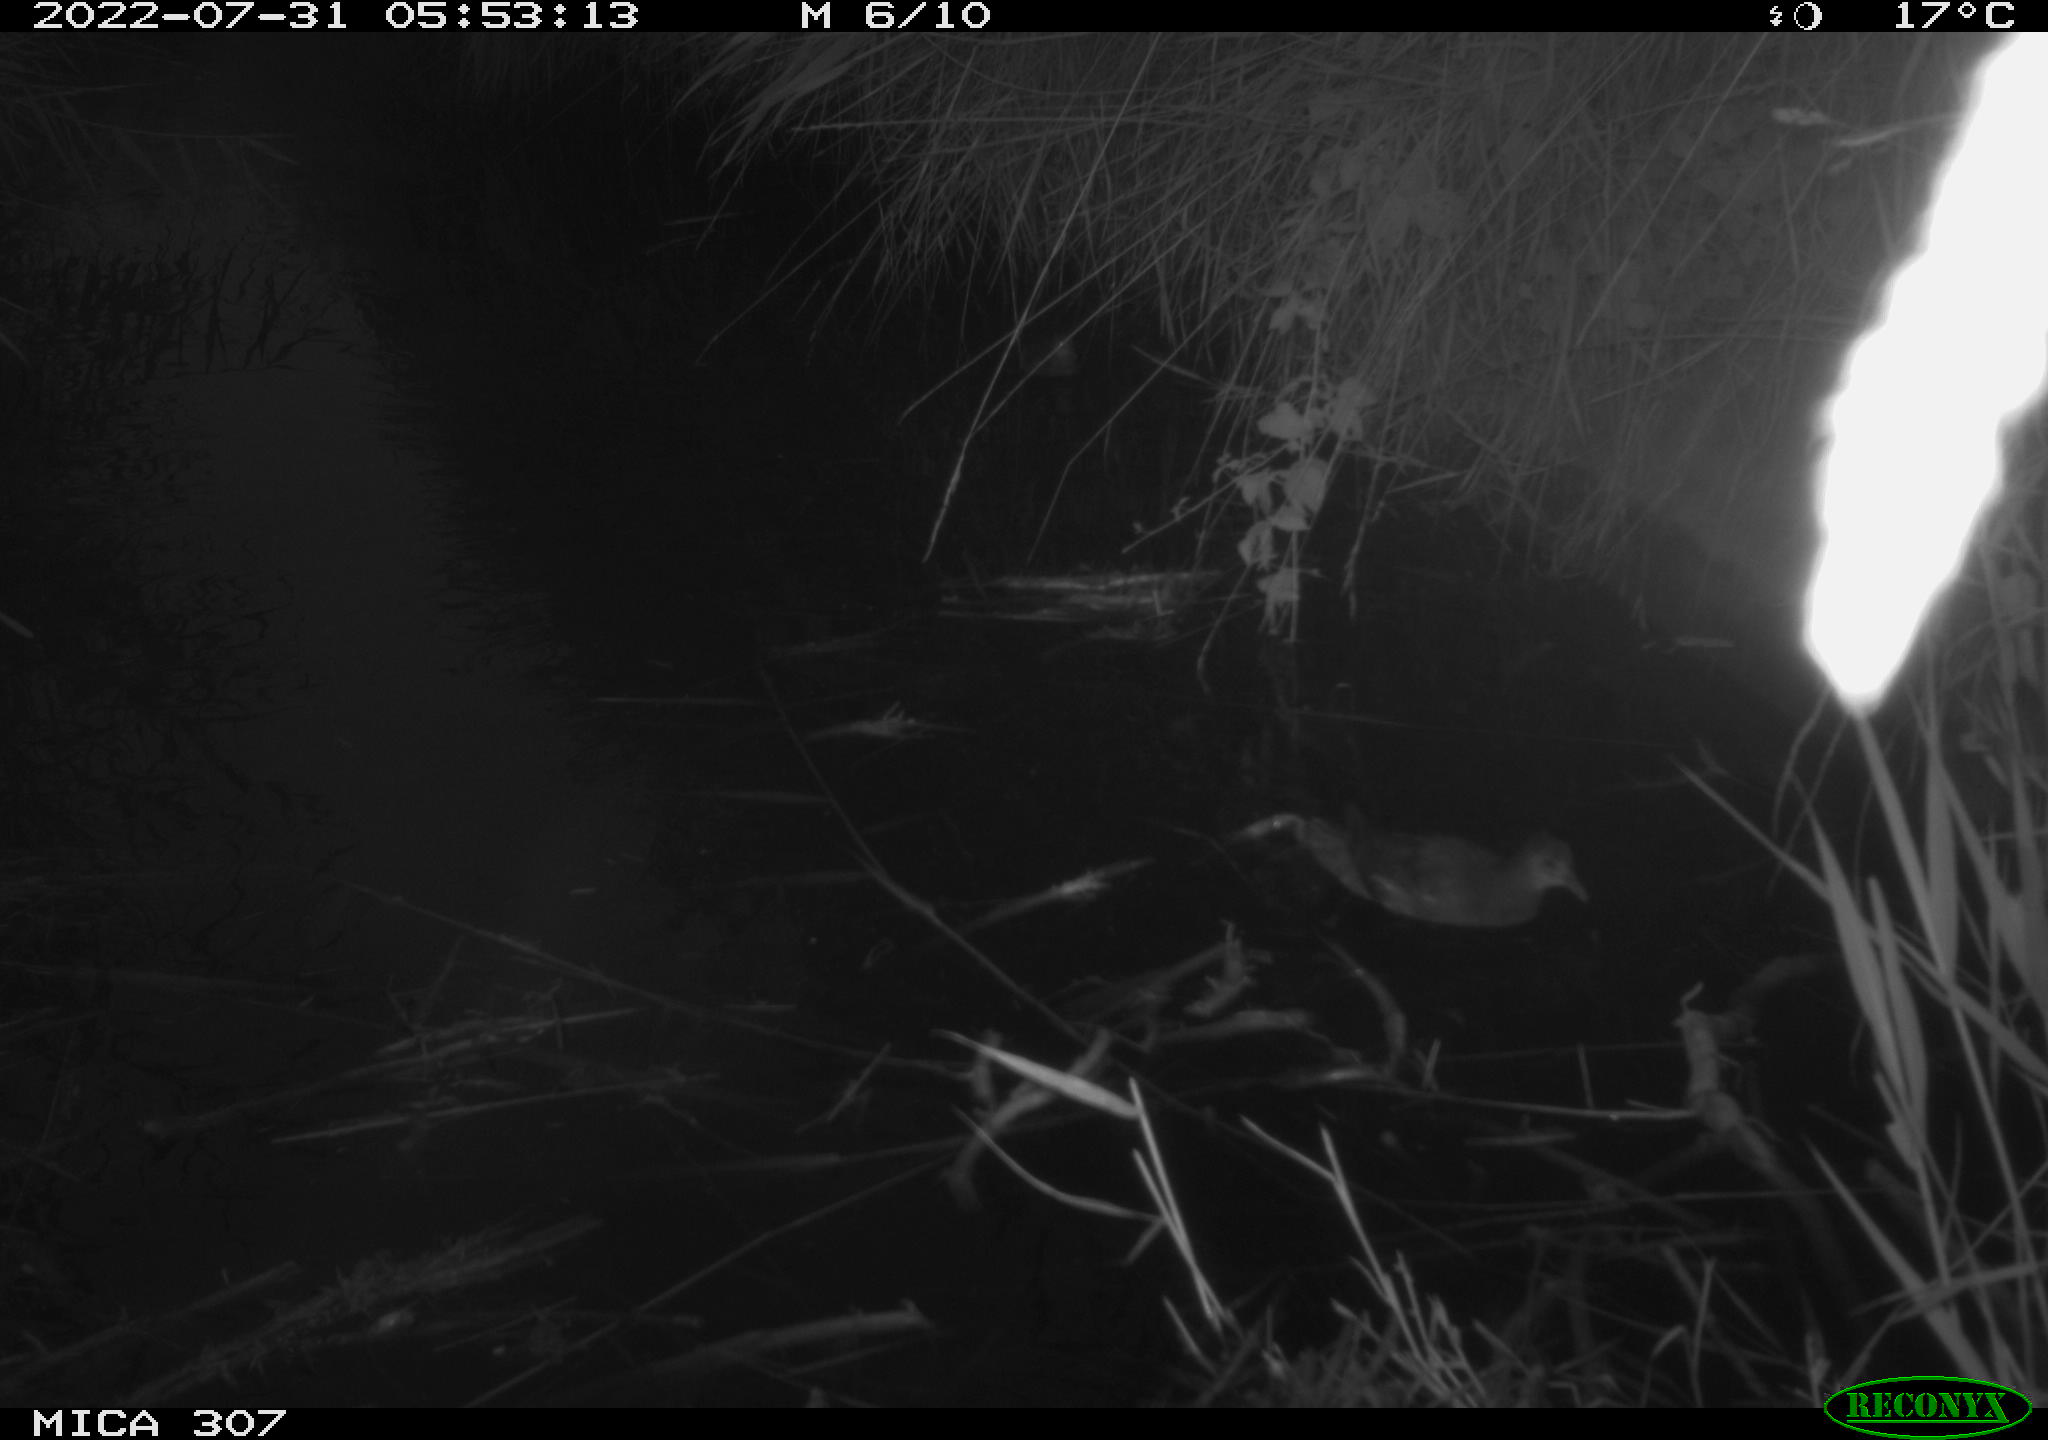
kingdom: Animalia
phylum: Chordata
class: Aves
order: Gruiformes
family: Rallidae
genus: Gallinula
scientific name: Gallinula chloropus
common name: Common moorhen
